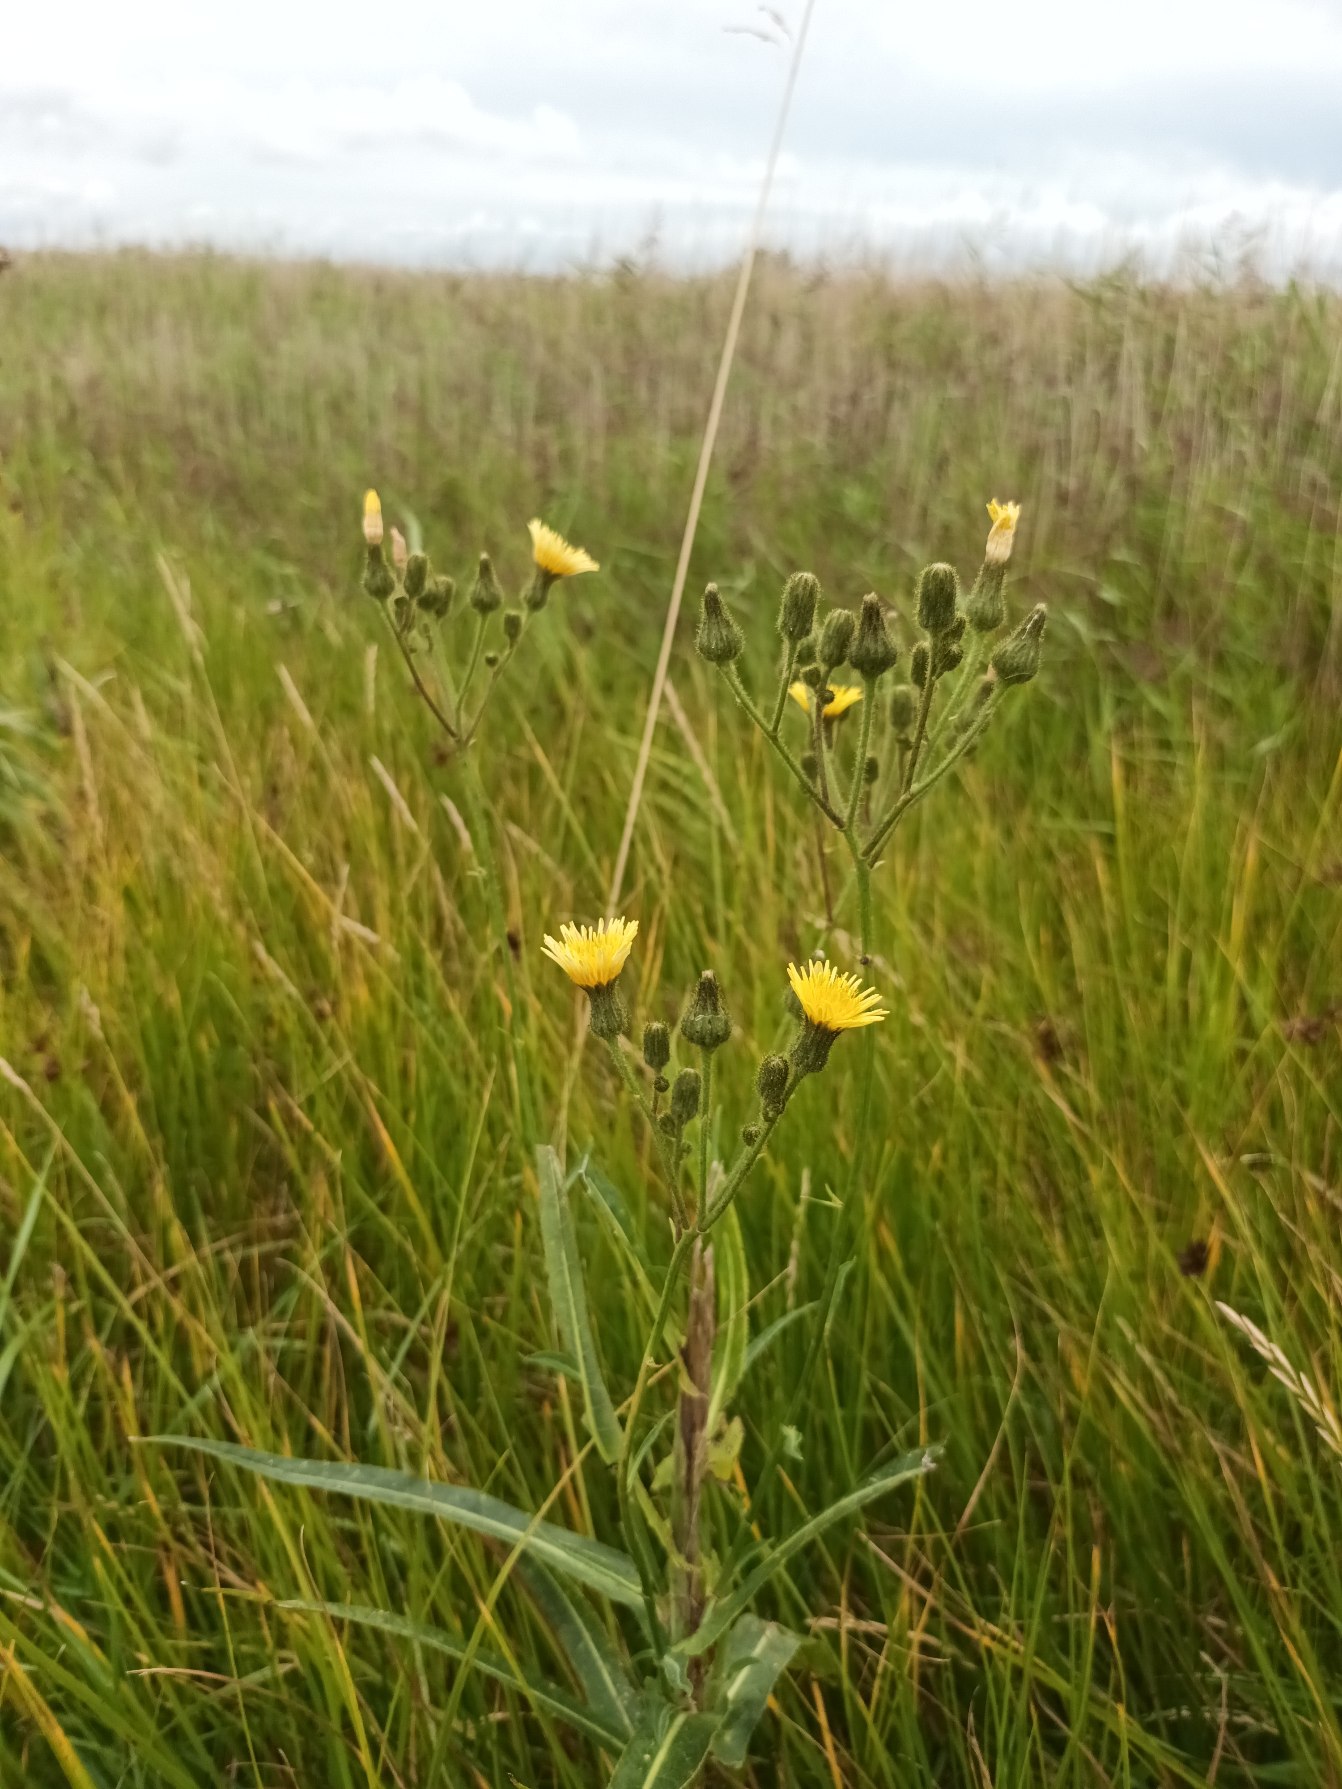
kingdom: Plantae
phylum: Tracheophyta
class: Magnoliopsida
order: Asterales
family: Asteraceae
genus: Sonchus
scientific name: Sonchus palustris
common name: Kær-svinemælk
